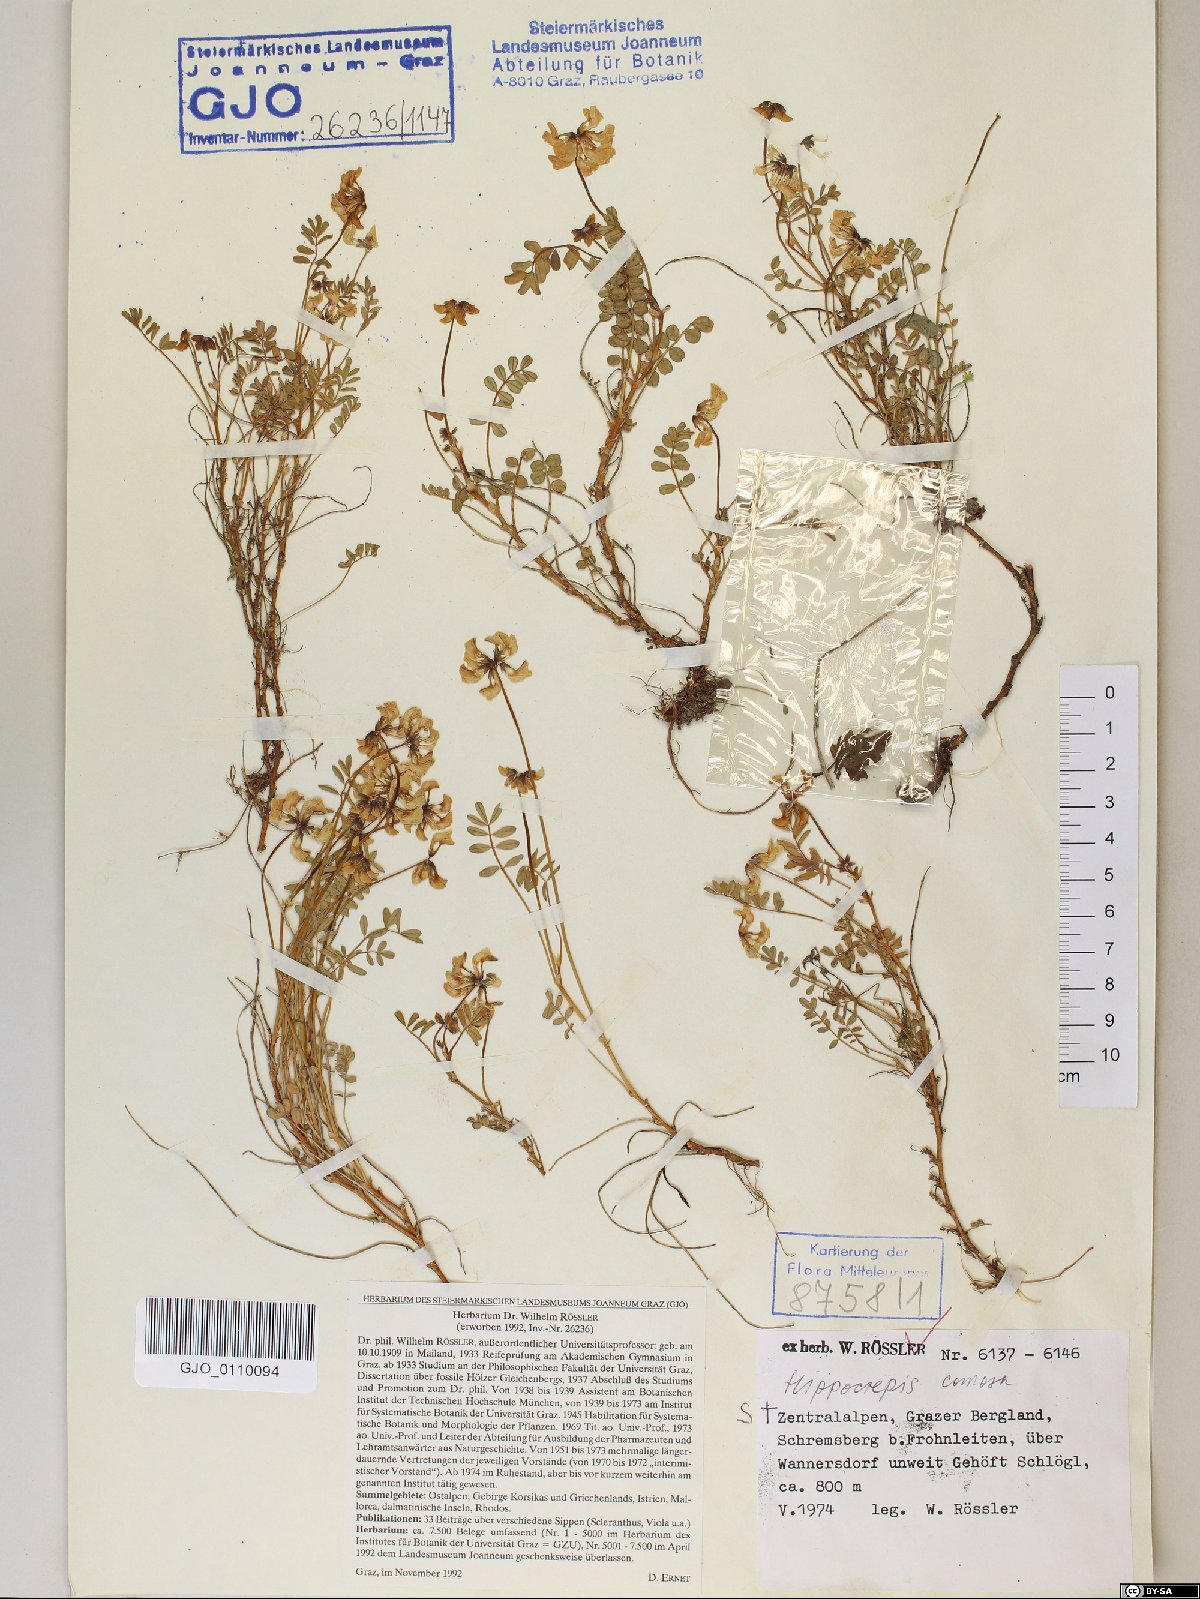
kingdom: Plantae
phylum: Tracheophyta
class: Magnoliopsida
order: Fabales
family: Fabaceae
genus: Hippocrepis
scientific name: Hippocrepis comosa
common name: Horseshoe vetch
